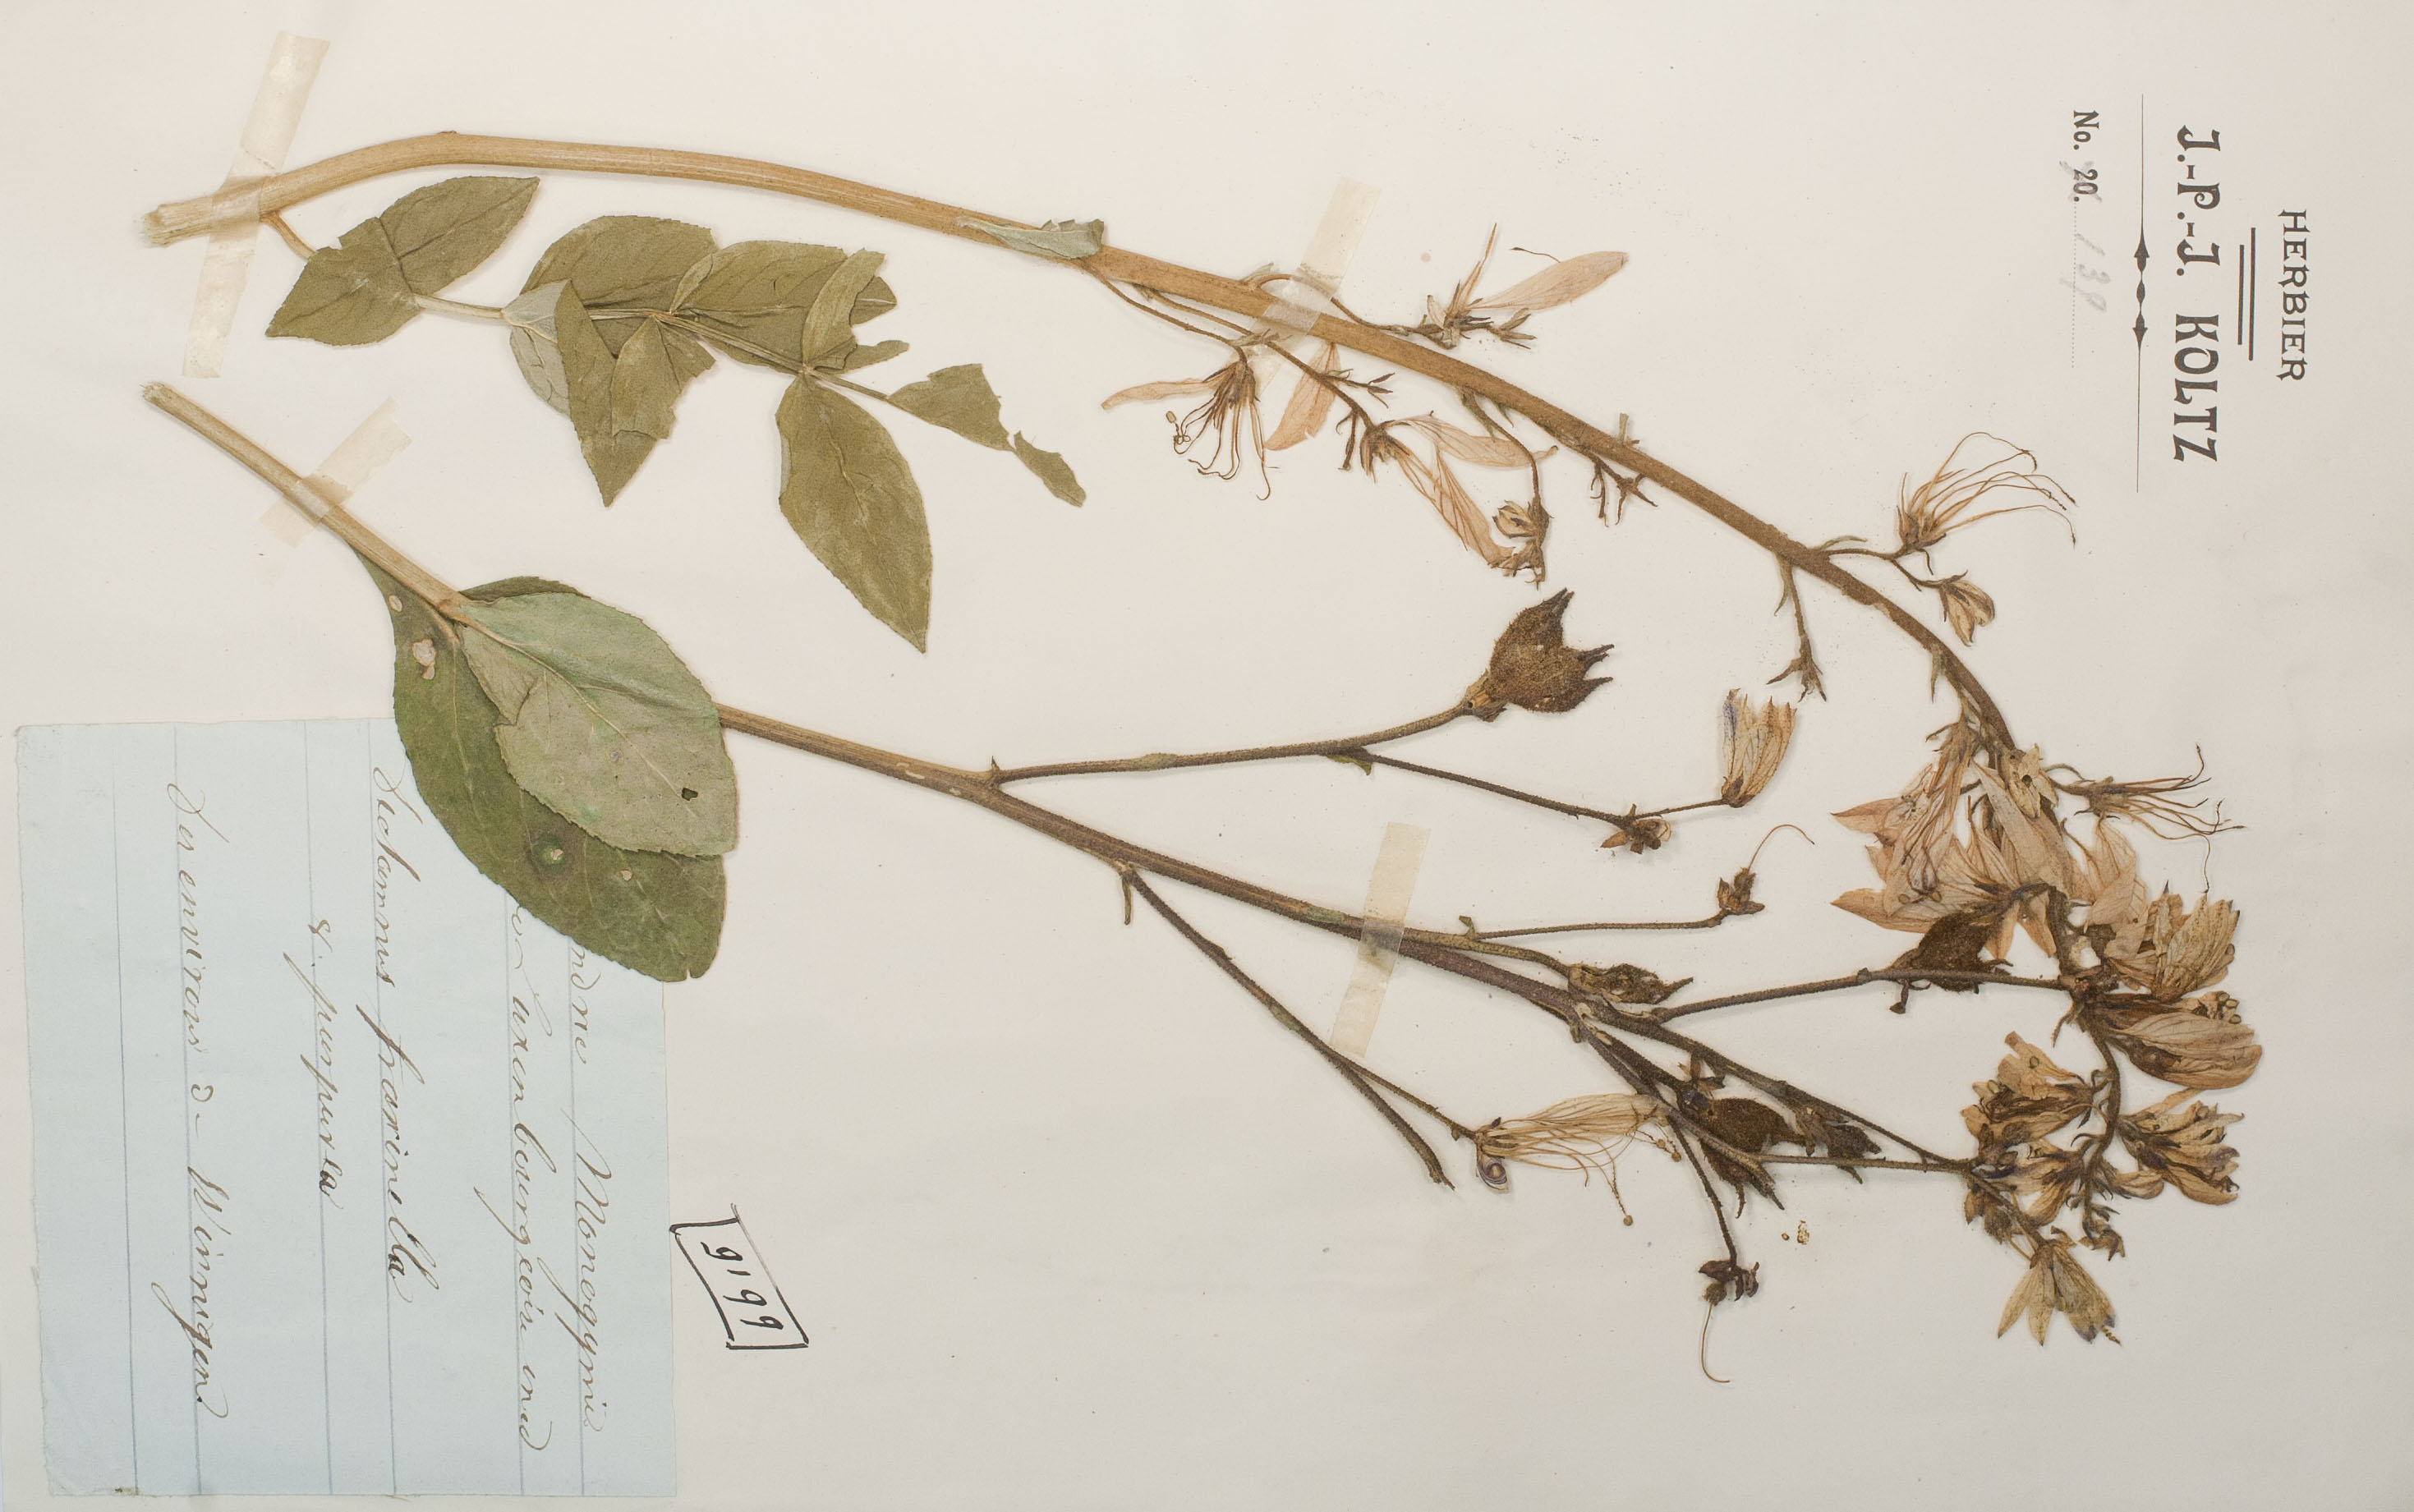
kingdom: Plantae
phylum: Tracheophyta
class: Magnoliopsida
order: Sapindales
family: Rutaceae
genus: Dictamnus
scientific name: Dictamnus albus
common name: Gasplant
